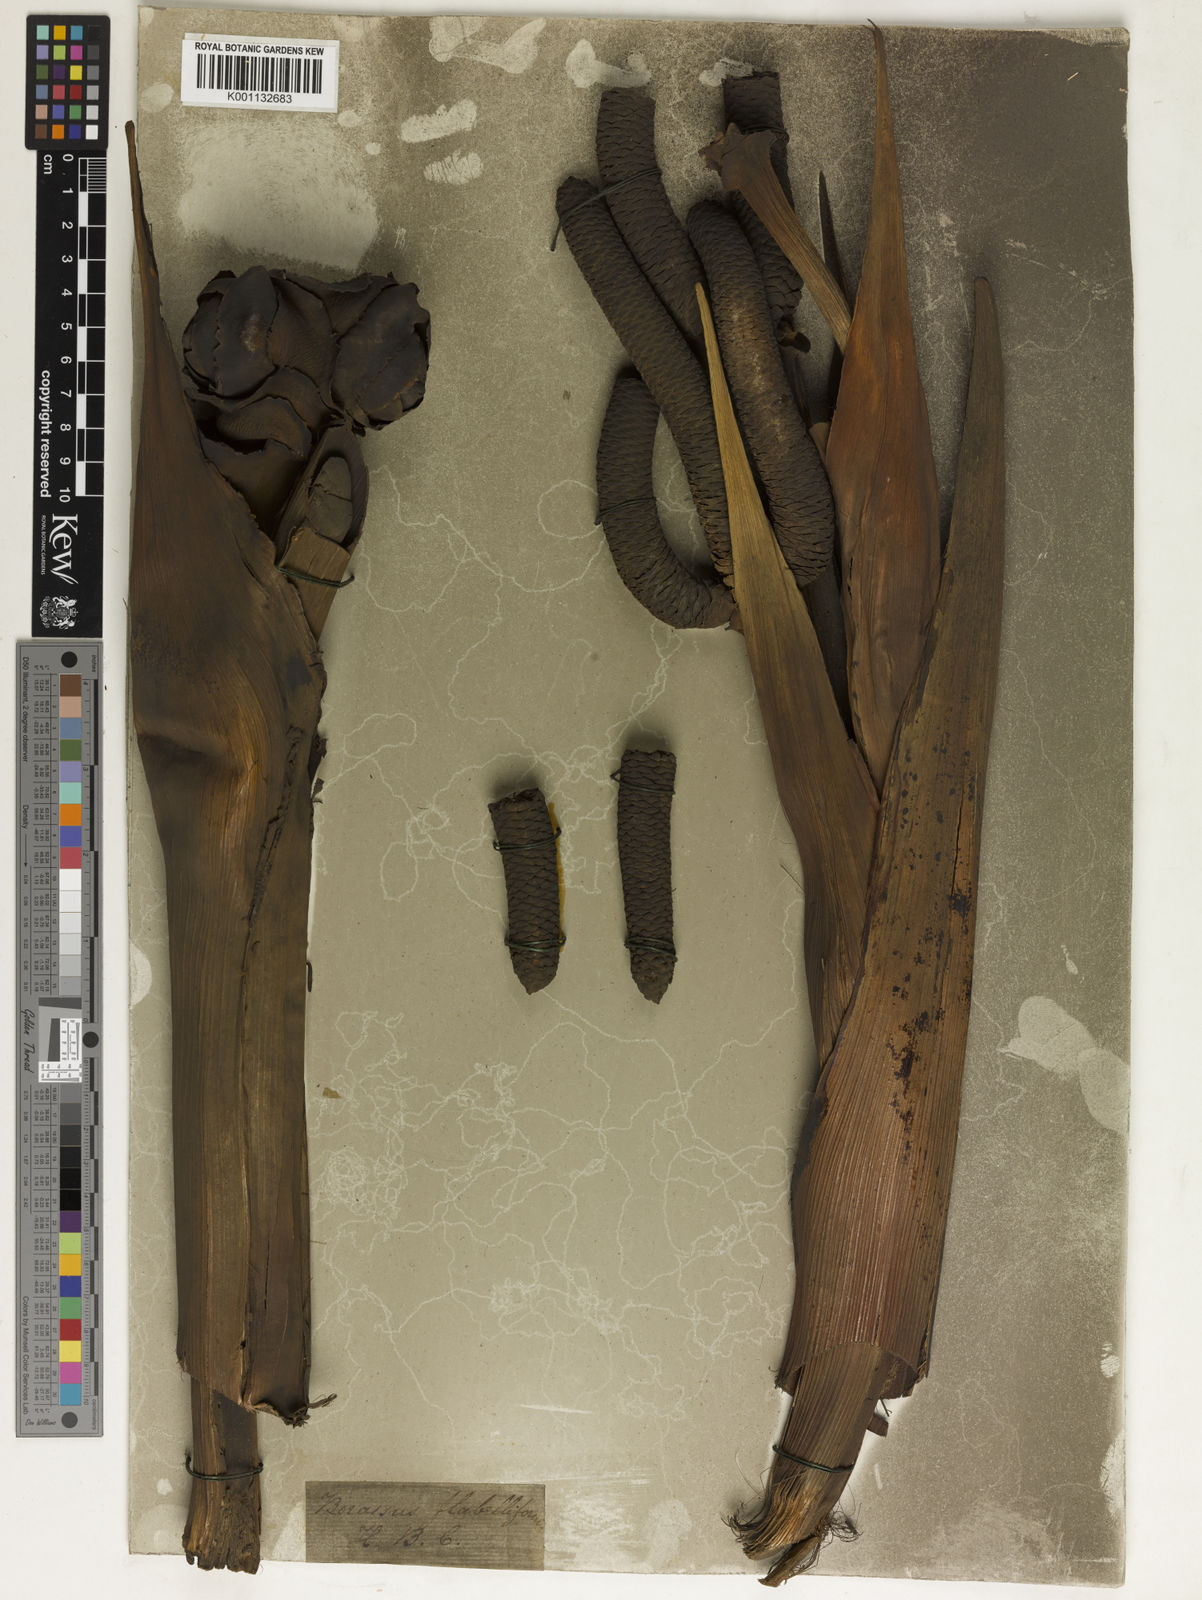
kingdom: Plantae
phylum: Tracheophyta
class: Liliopsida
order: Arecales
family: Arecaceae
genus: Borassus
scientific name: Borassus flabellifer
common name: Palmyra palm
